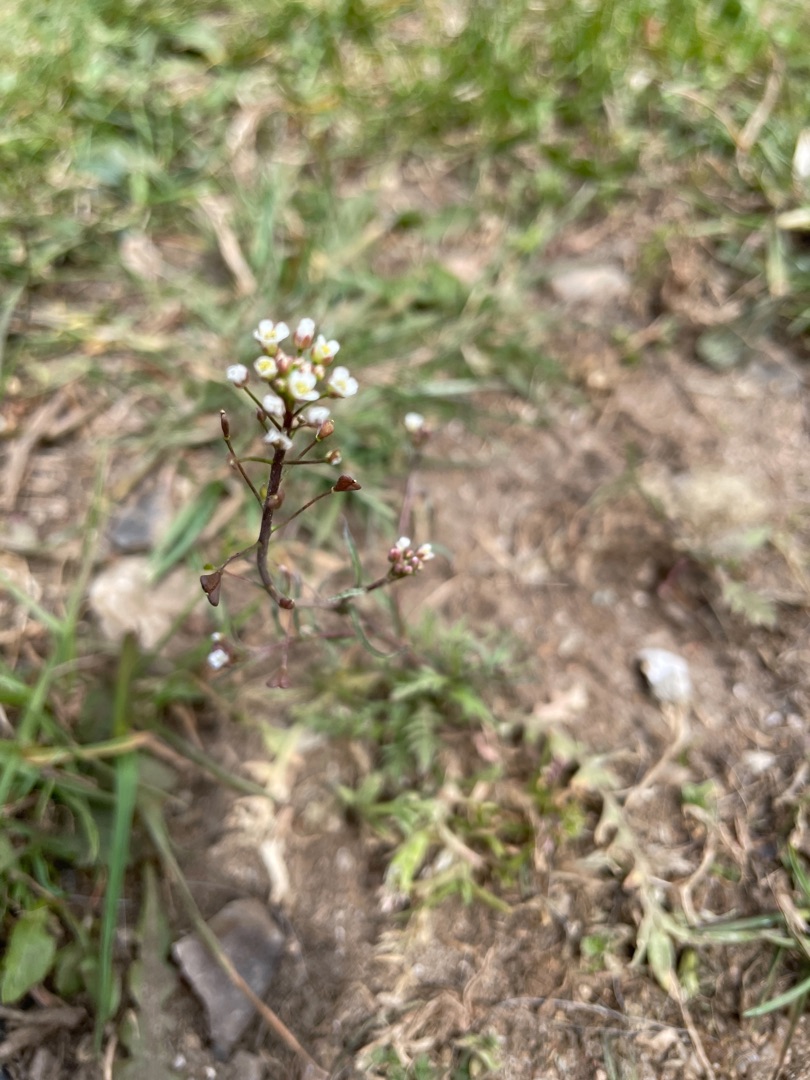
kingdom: Plantae
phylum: Tracheophyta
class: Magnoliopsida
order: Brassicales
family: Brassicaceae
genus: Capsella
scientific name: Capsella bursa-pastoris
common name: Hyrdetaske
